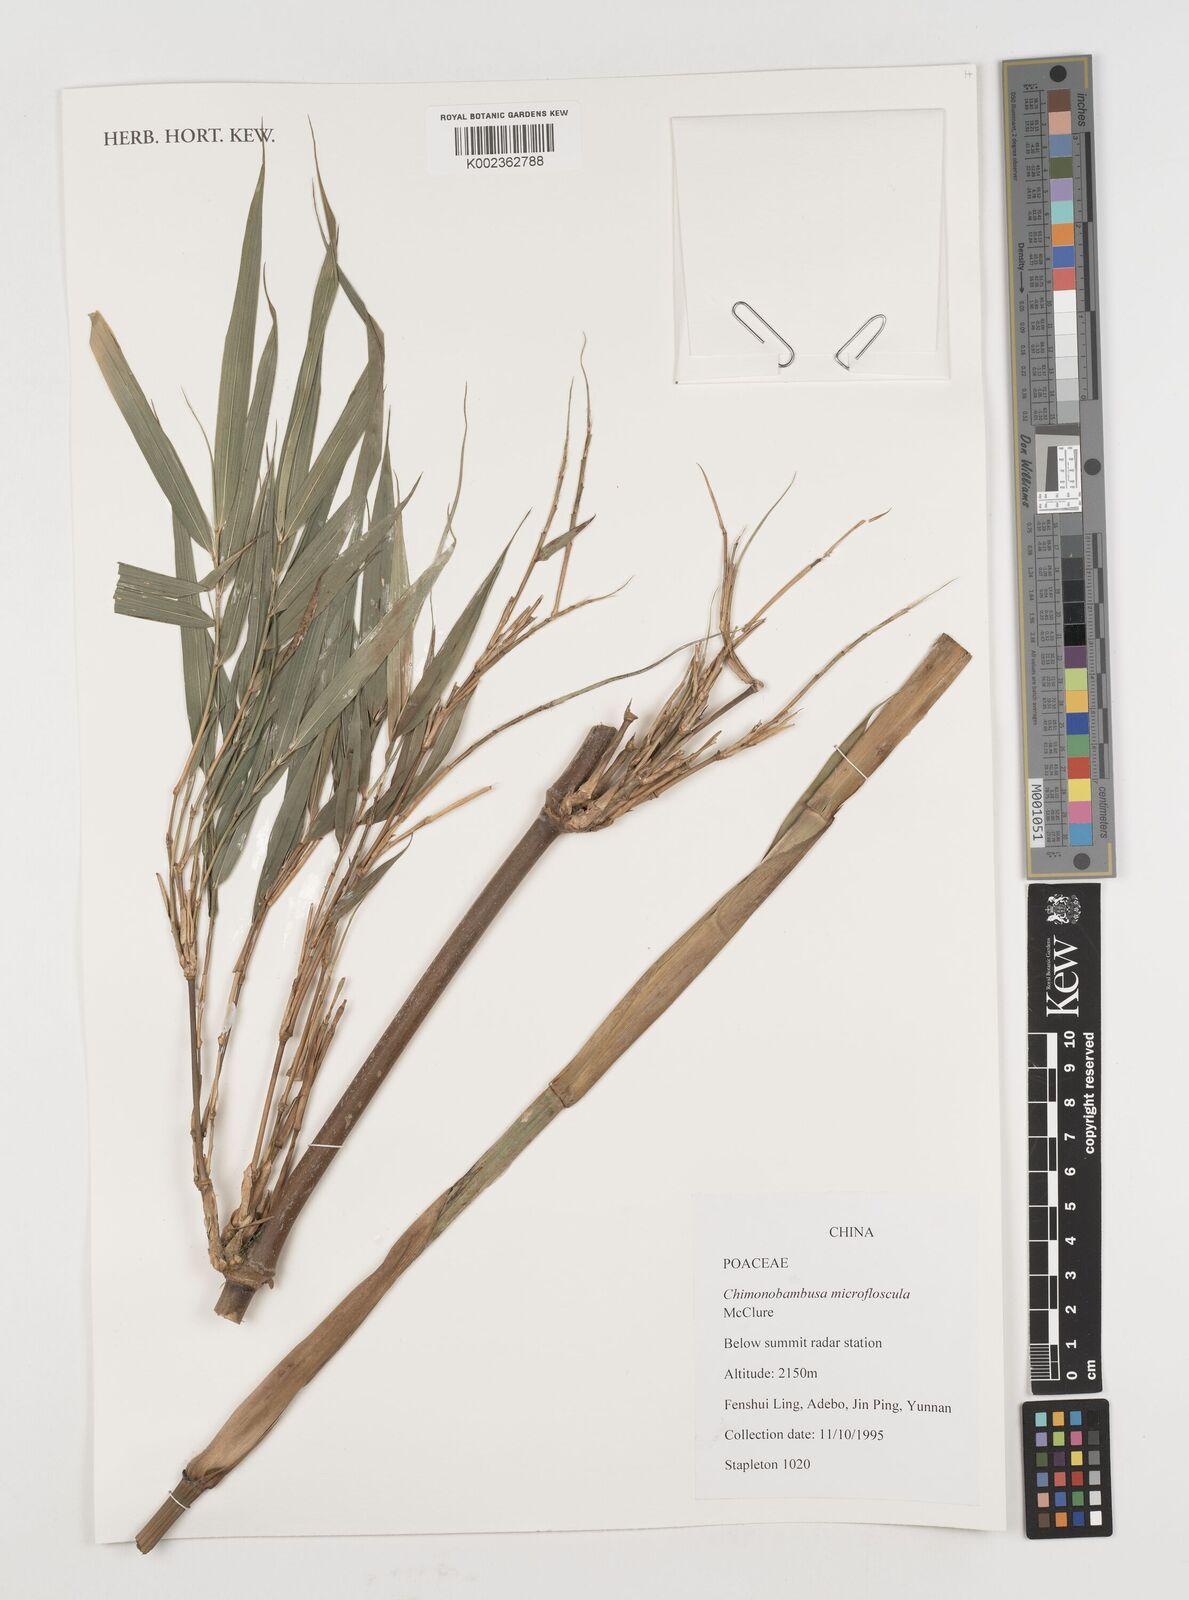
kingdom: Plantae
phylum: Tracheophyta
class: Liliopsida
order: Poales
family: Poaceae
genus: Chimonobambusa
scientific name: Chimonobambusa microfloscula
